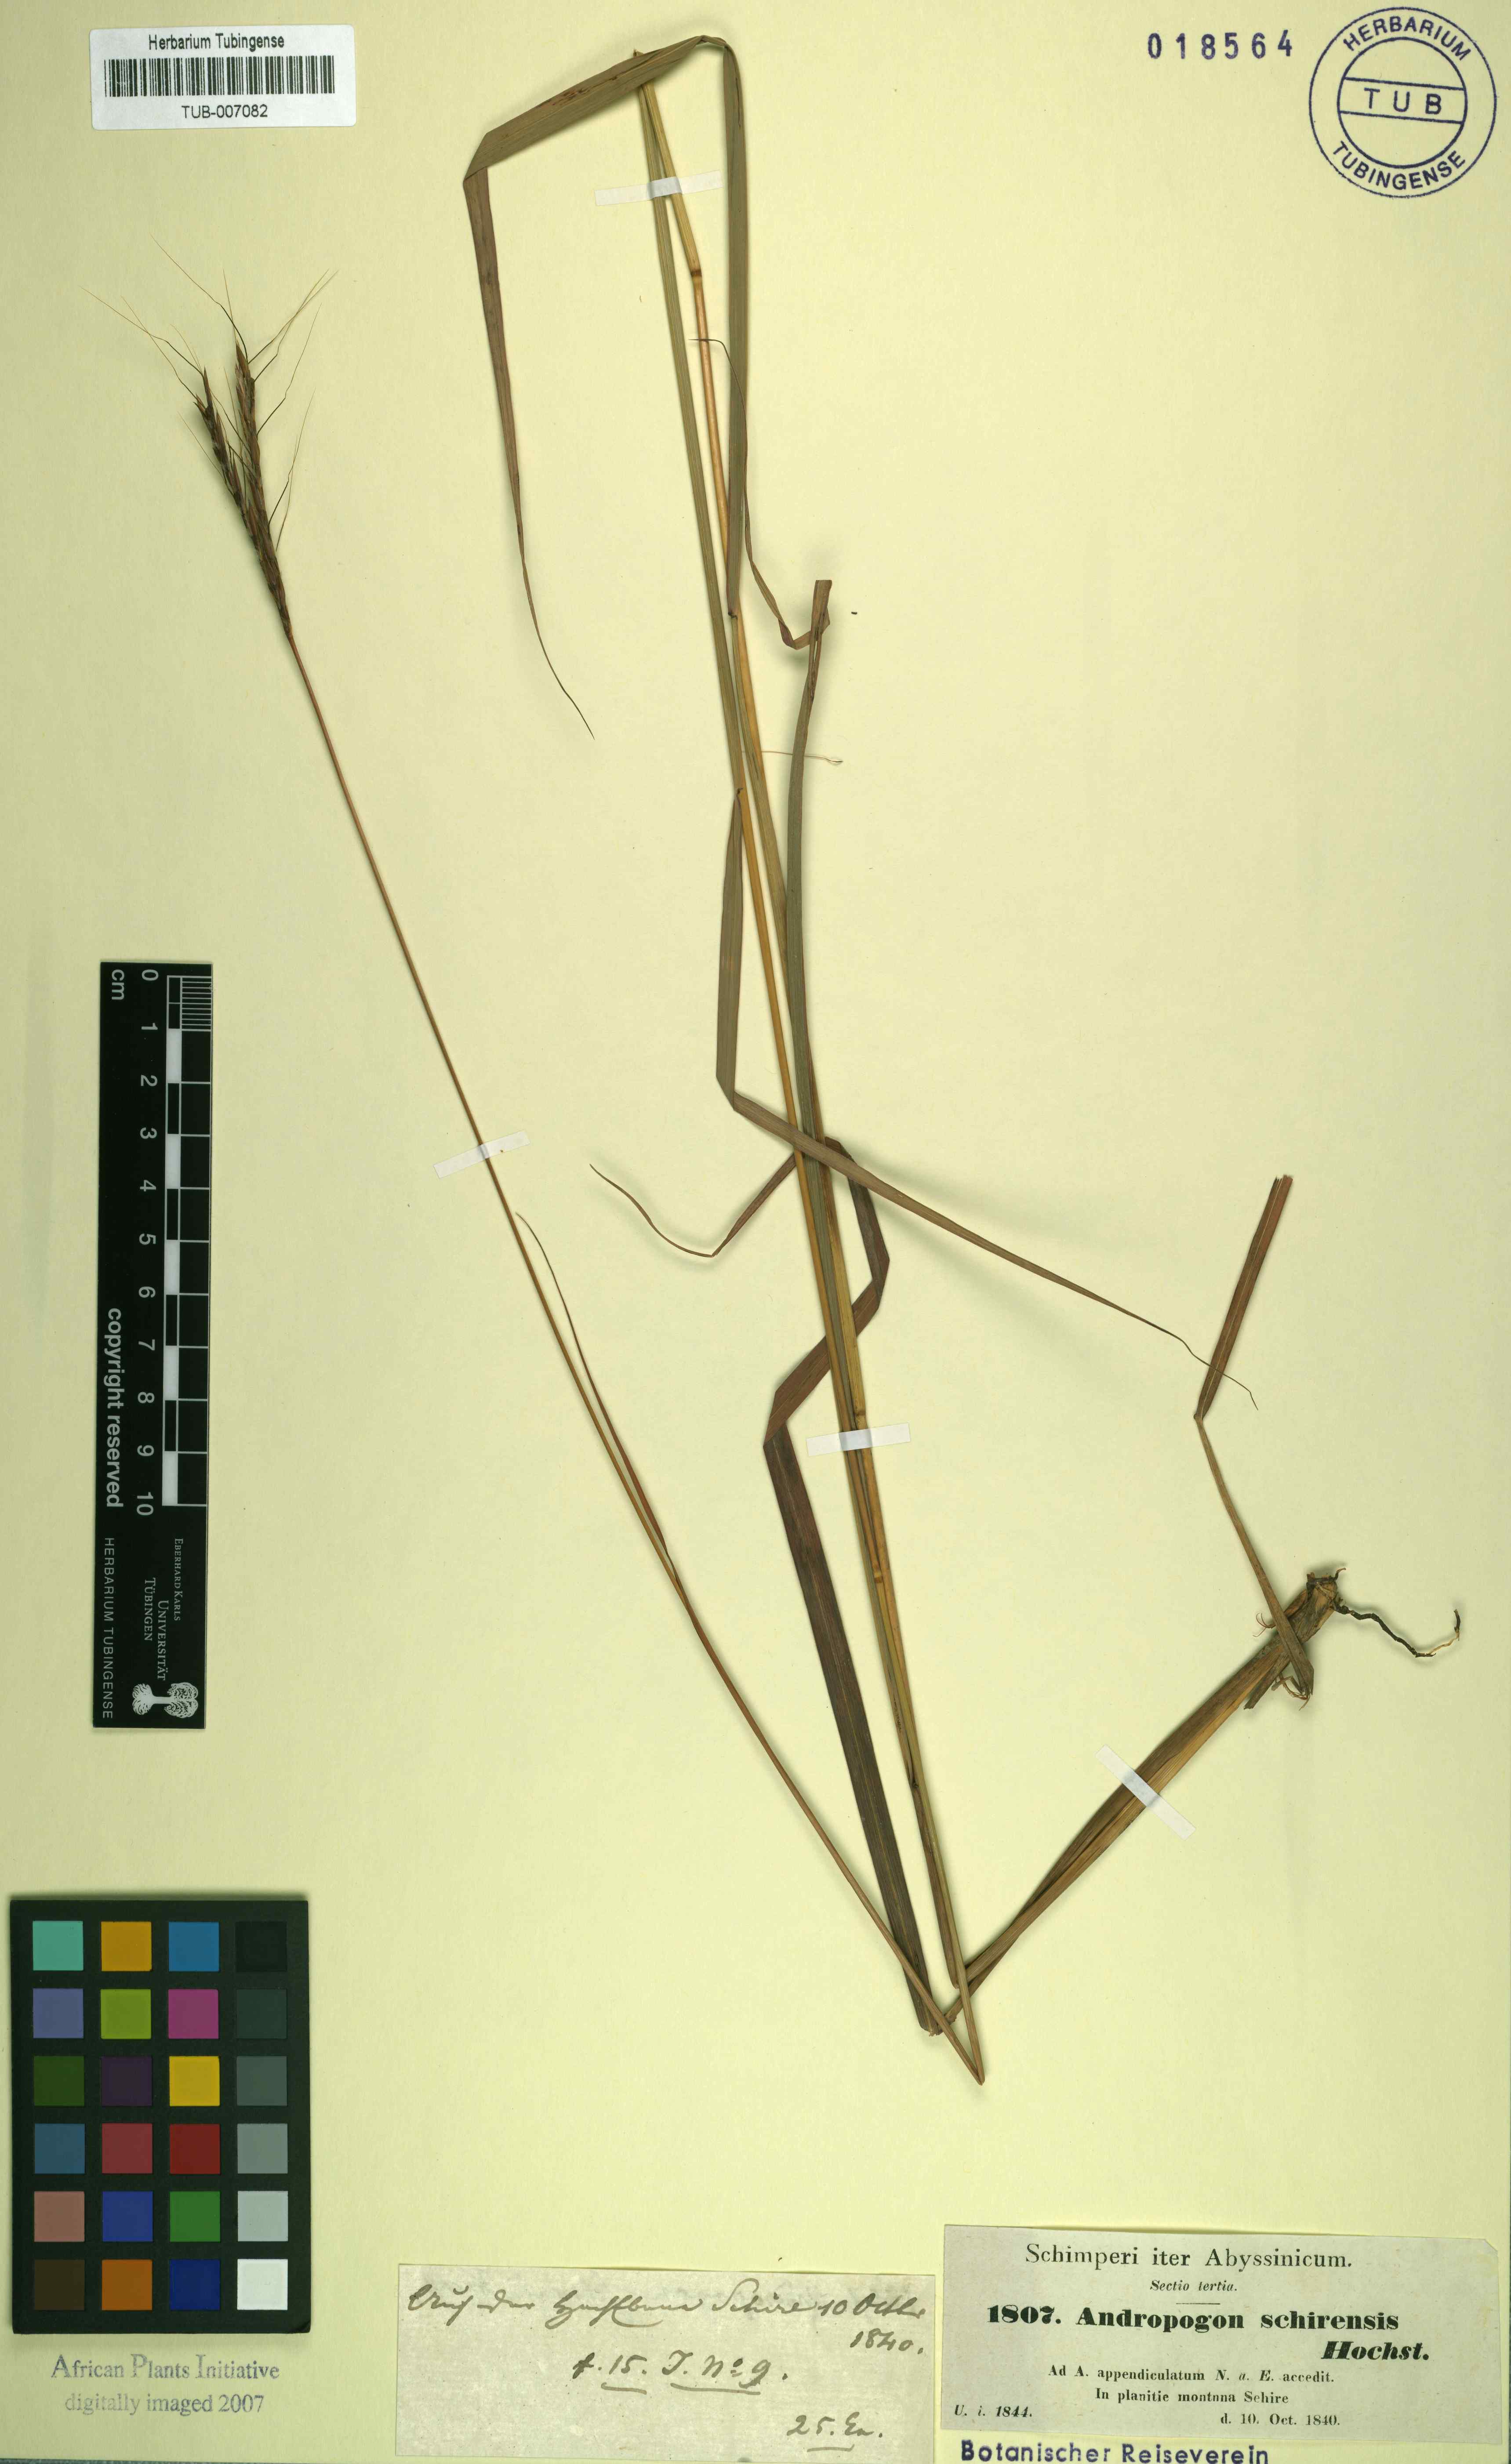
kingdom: Plantae
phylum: Tracheophyta
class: Liliopsida
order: Poales
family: Poaceae
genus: Andropogon
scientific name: Andropogon schirensis
